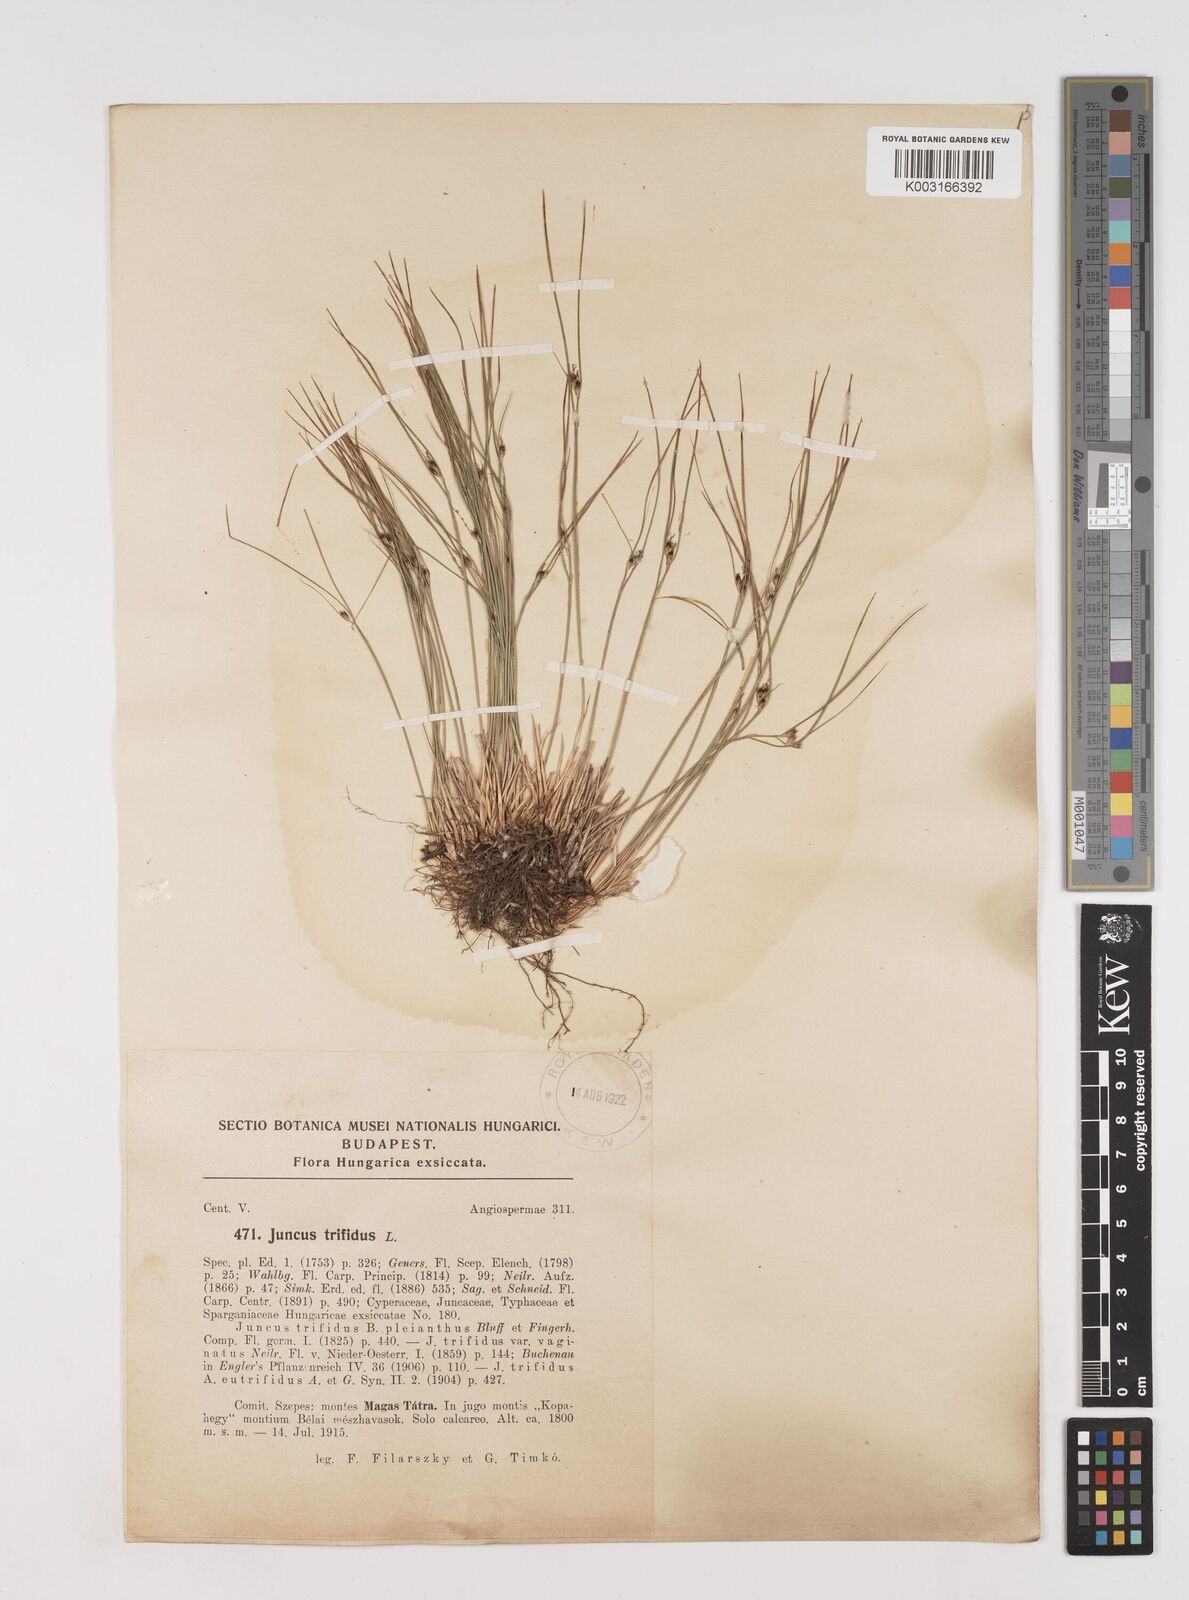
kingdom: Plantae
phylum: Tracheophyta
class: Liliopsida
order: Poales
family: Juncaceae
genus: Oreojuncus
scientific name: Oreojuncus trifidus
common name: Highland rush
